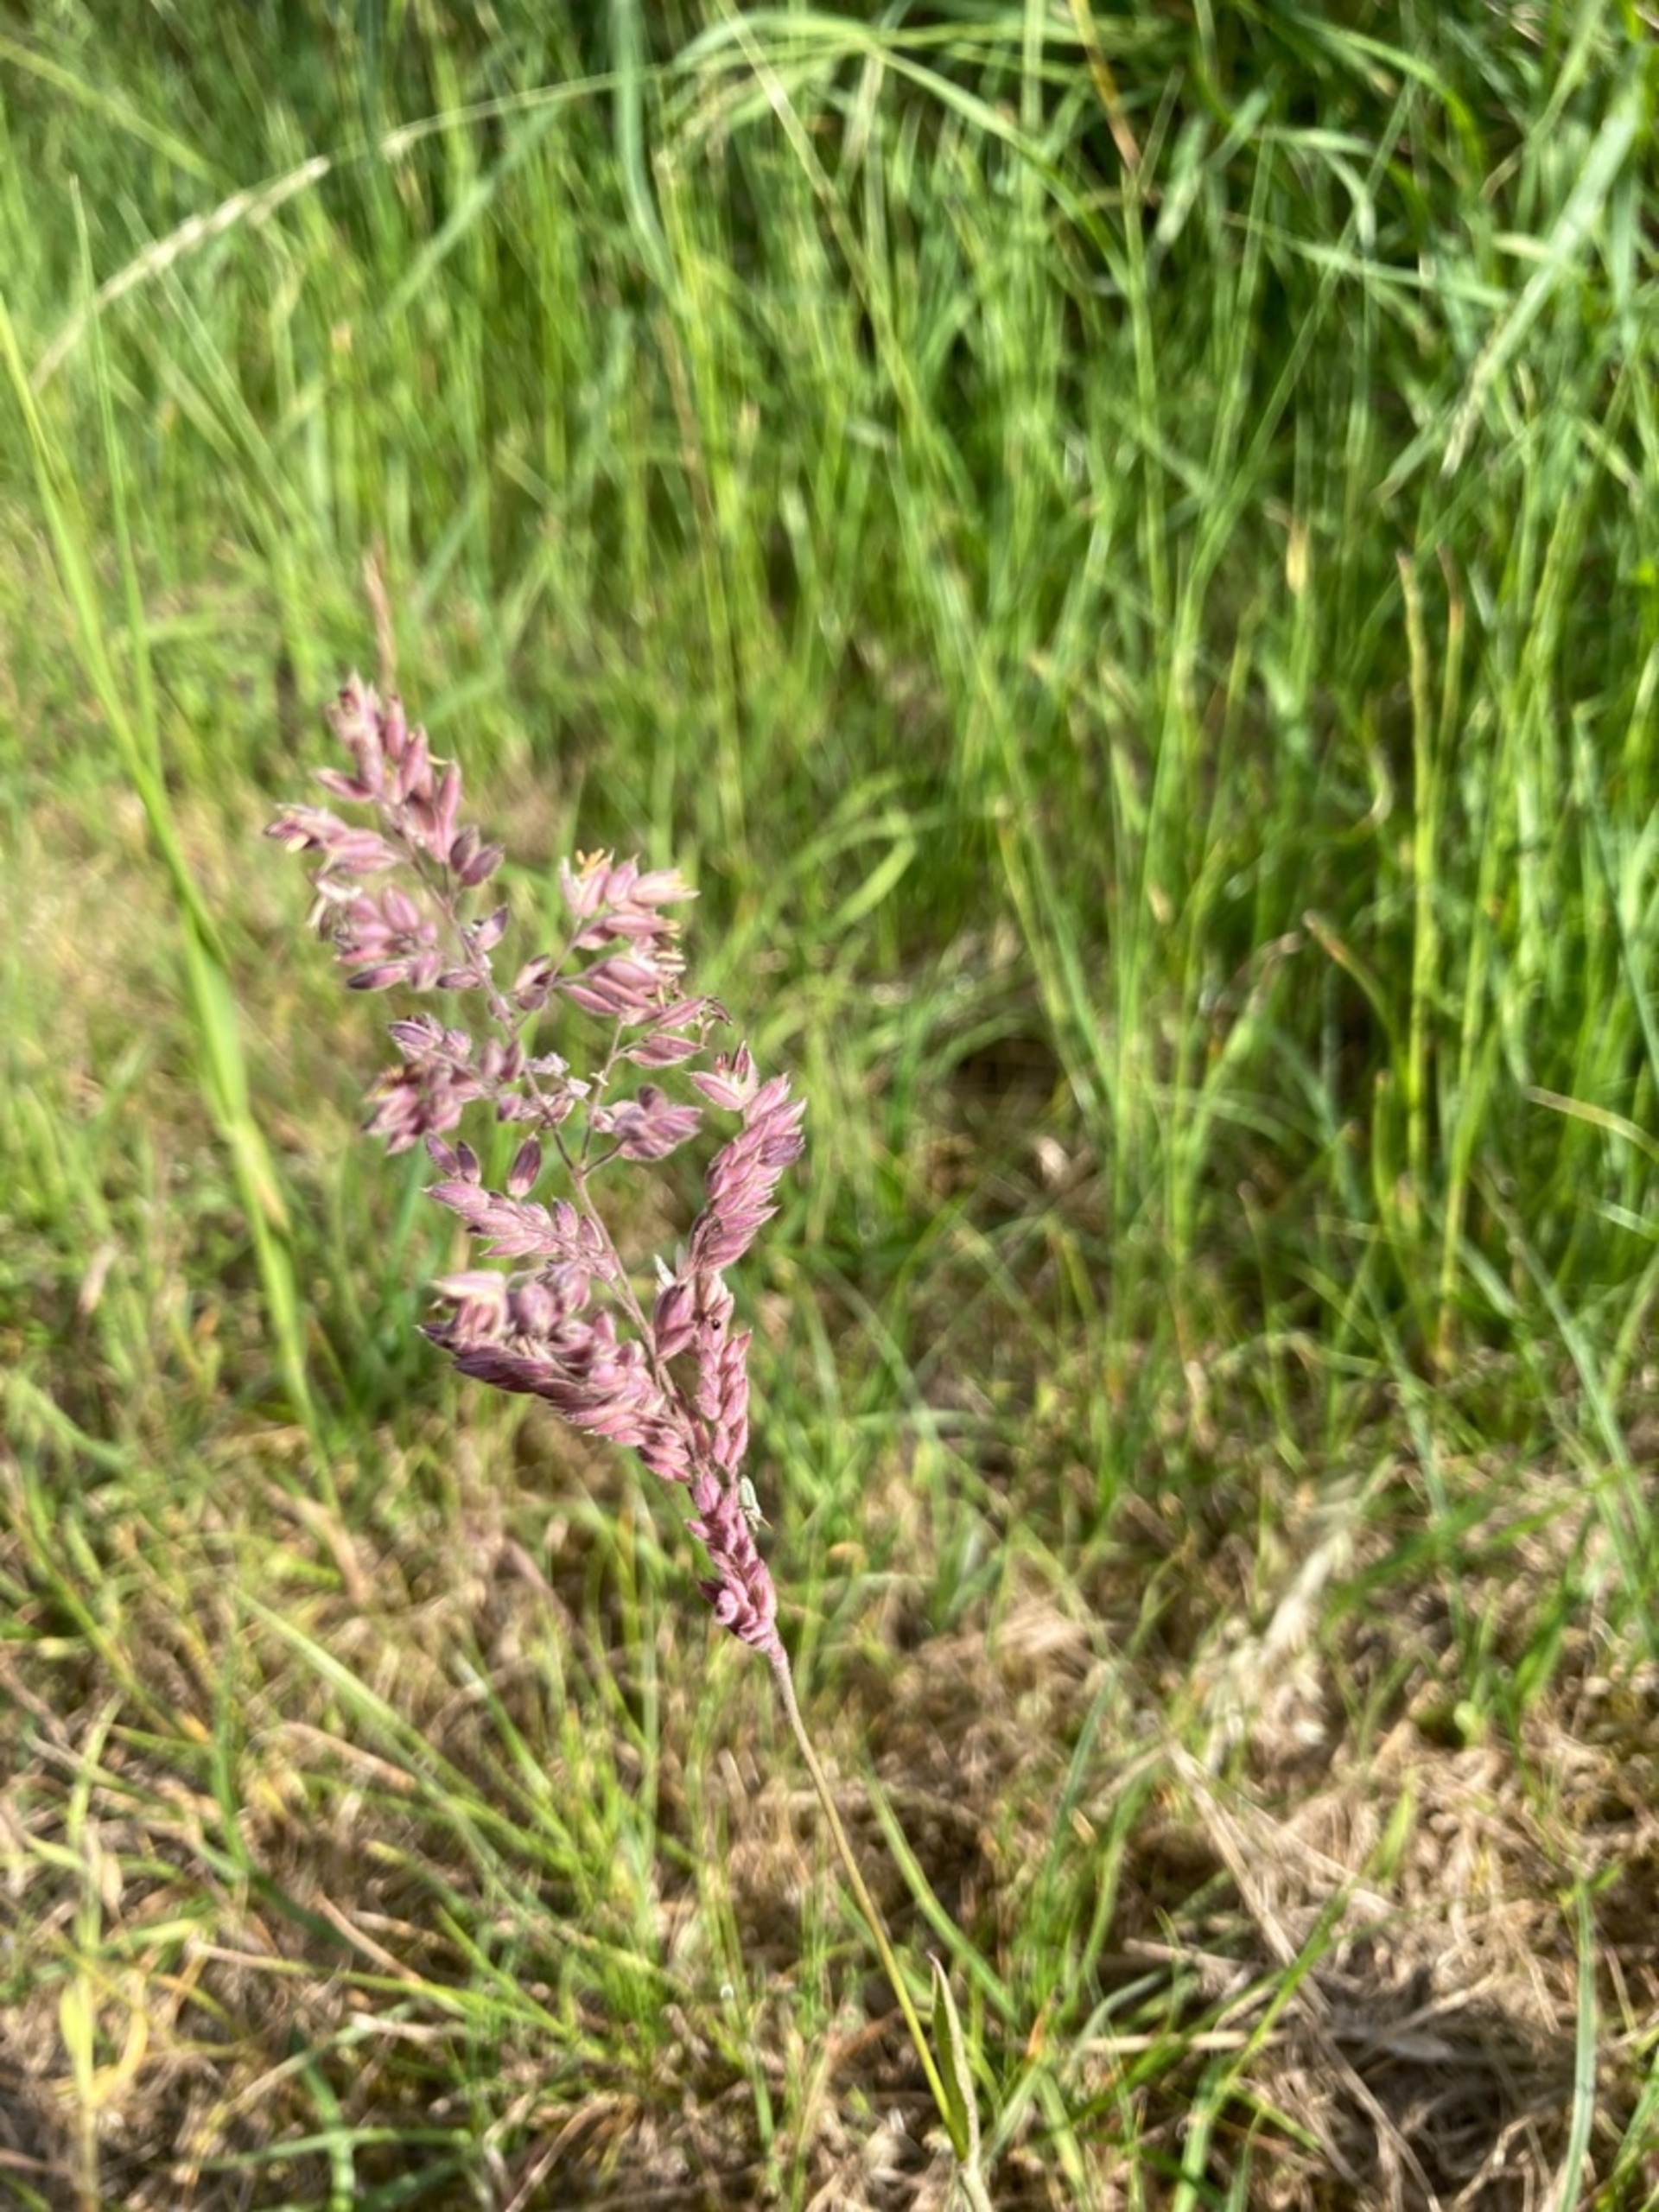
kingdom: Plantae
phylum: Tracheophyta
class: Liliopsida
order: Poales
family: Poaceae
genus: Holcus
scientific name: Holcus lanatus
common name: Fløjlsgræs
